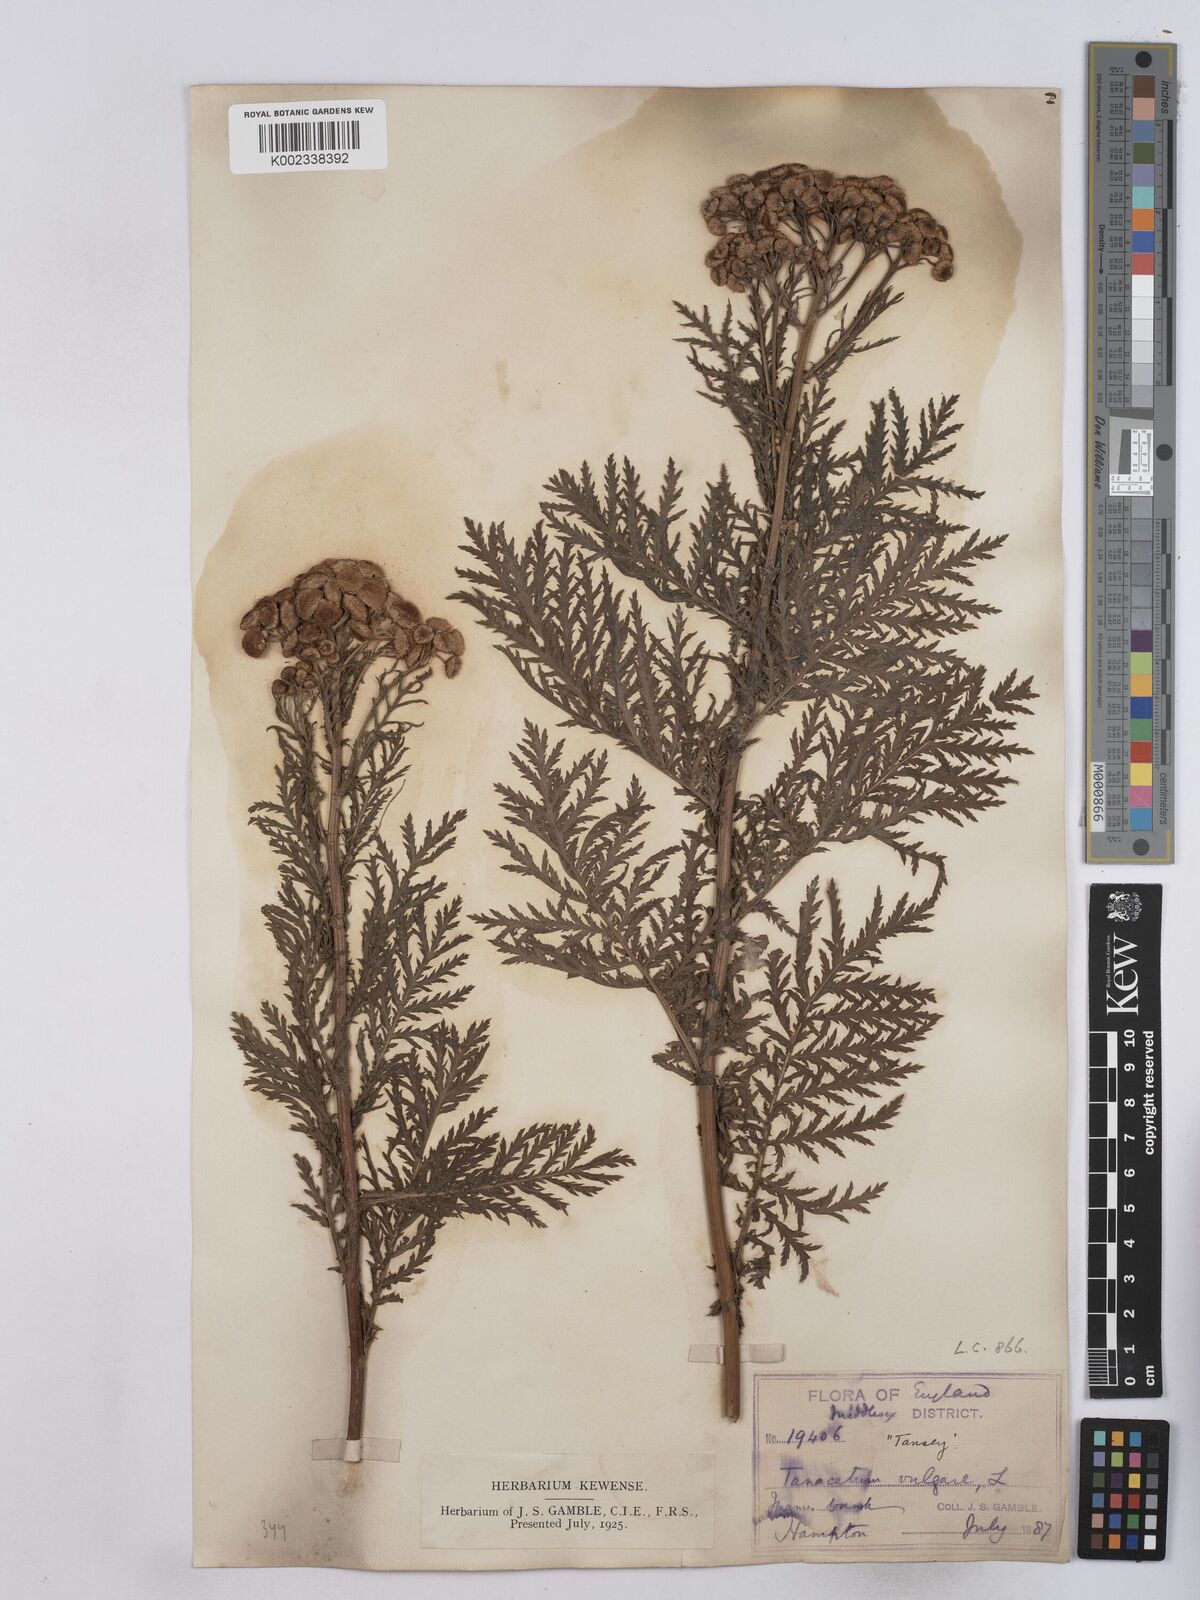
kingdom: Plantae
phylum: Tracheophyta
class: Magnoliopsida
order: Asterales
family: Asteraceae
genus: Tanacetum
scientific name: Tanacetum vulgare
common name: Common tansy
